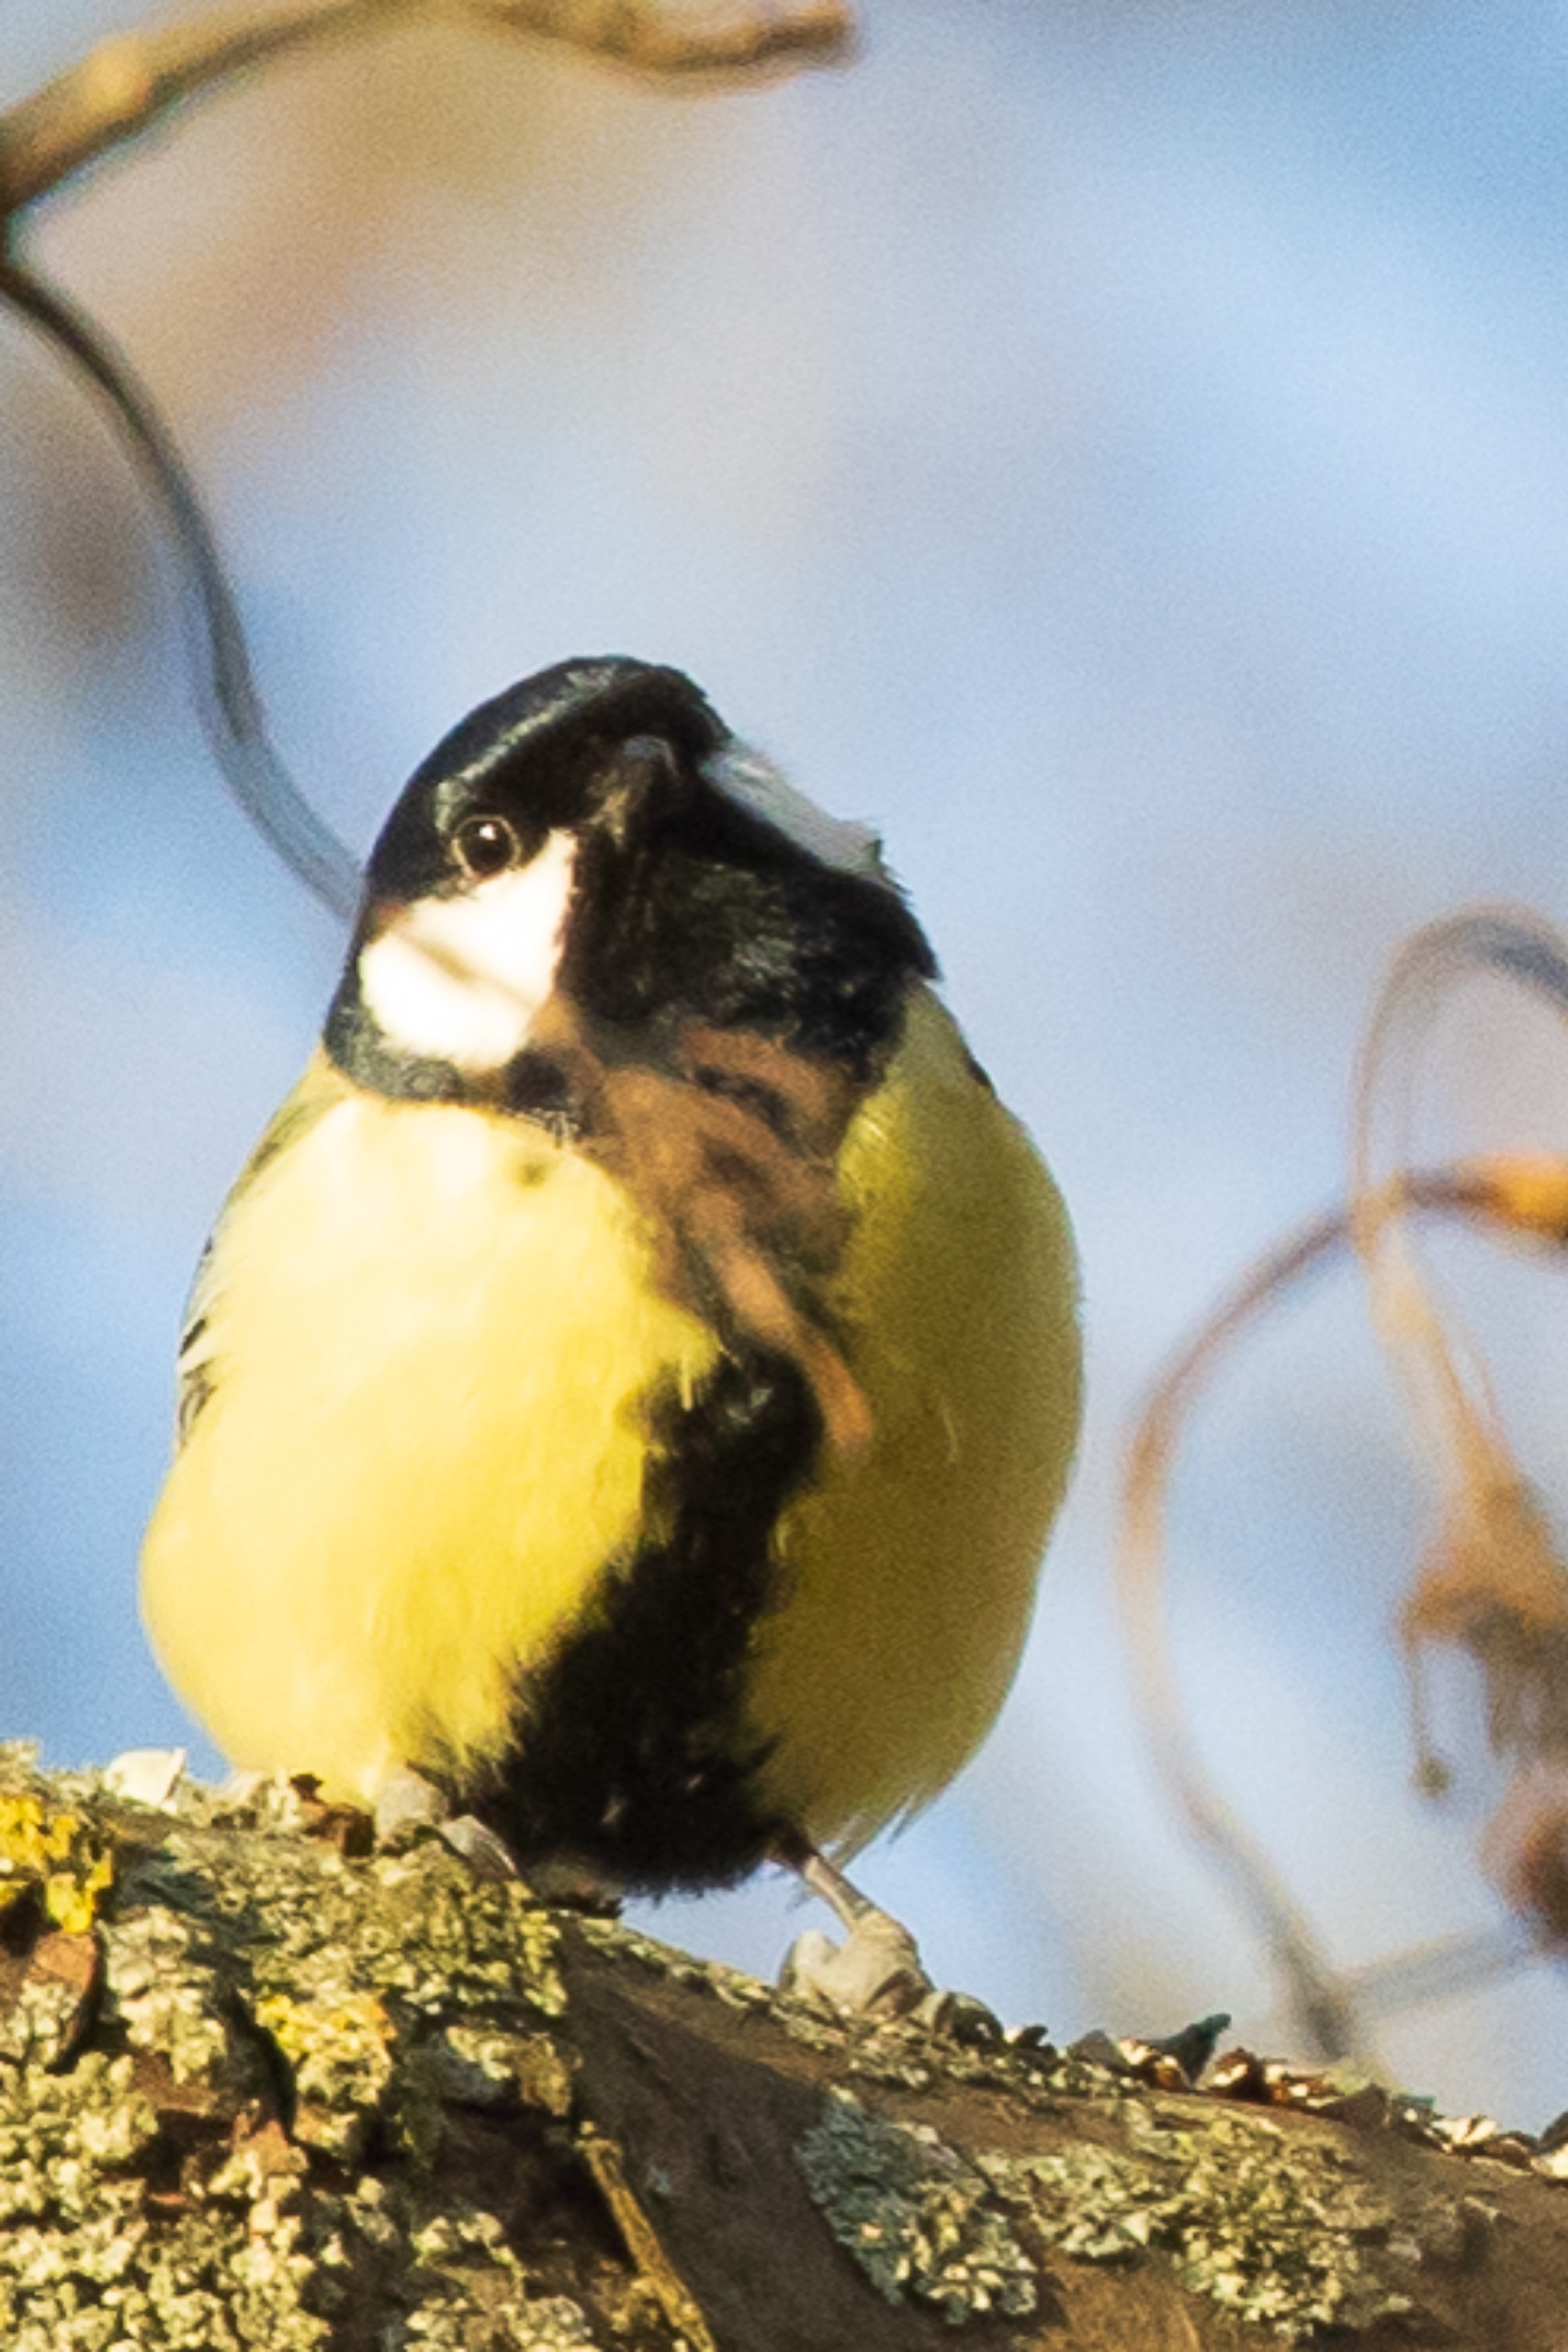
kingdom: Animalia
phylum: Chordata
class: Aves
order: Passeriformes
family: Paridae
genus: Parus
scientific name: Parus major
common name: Musvit
